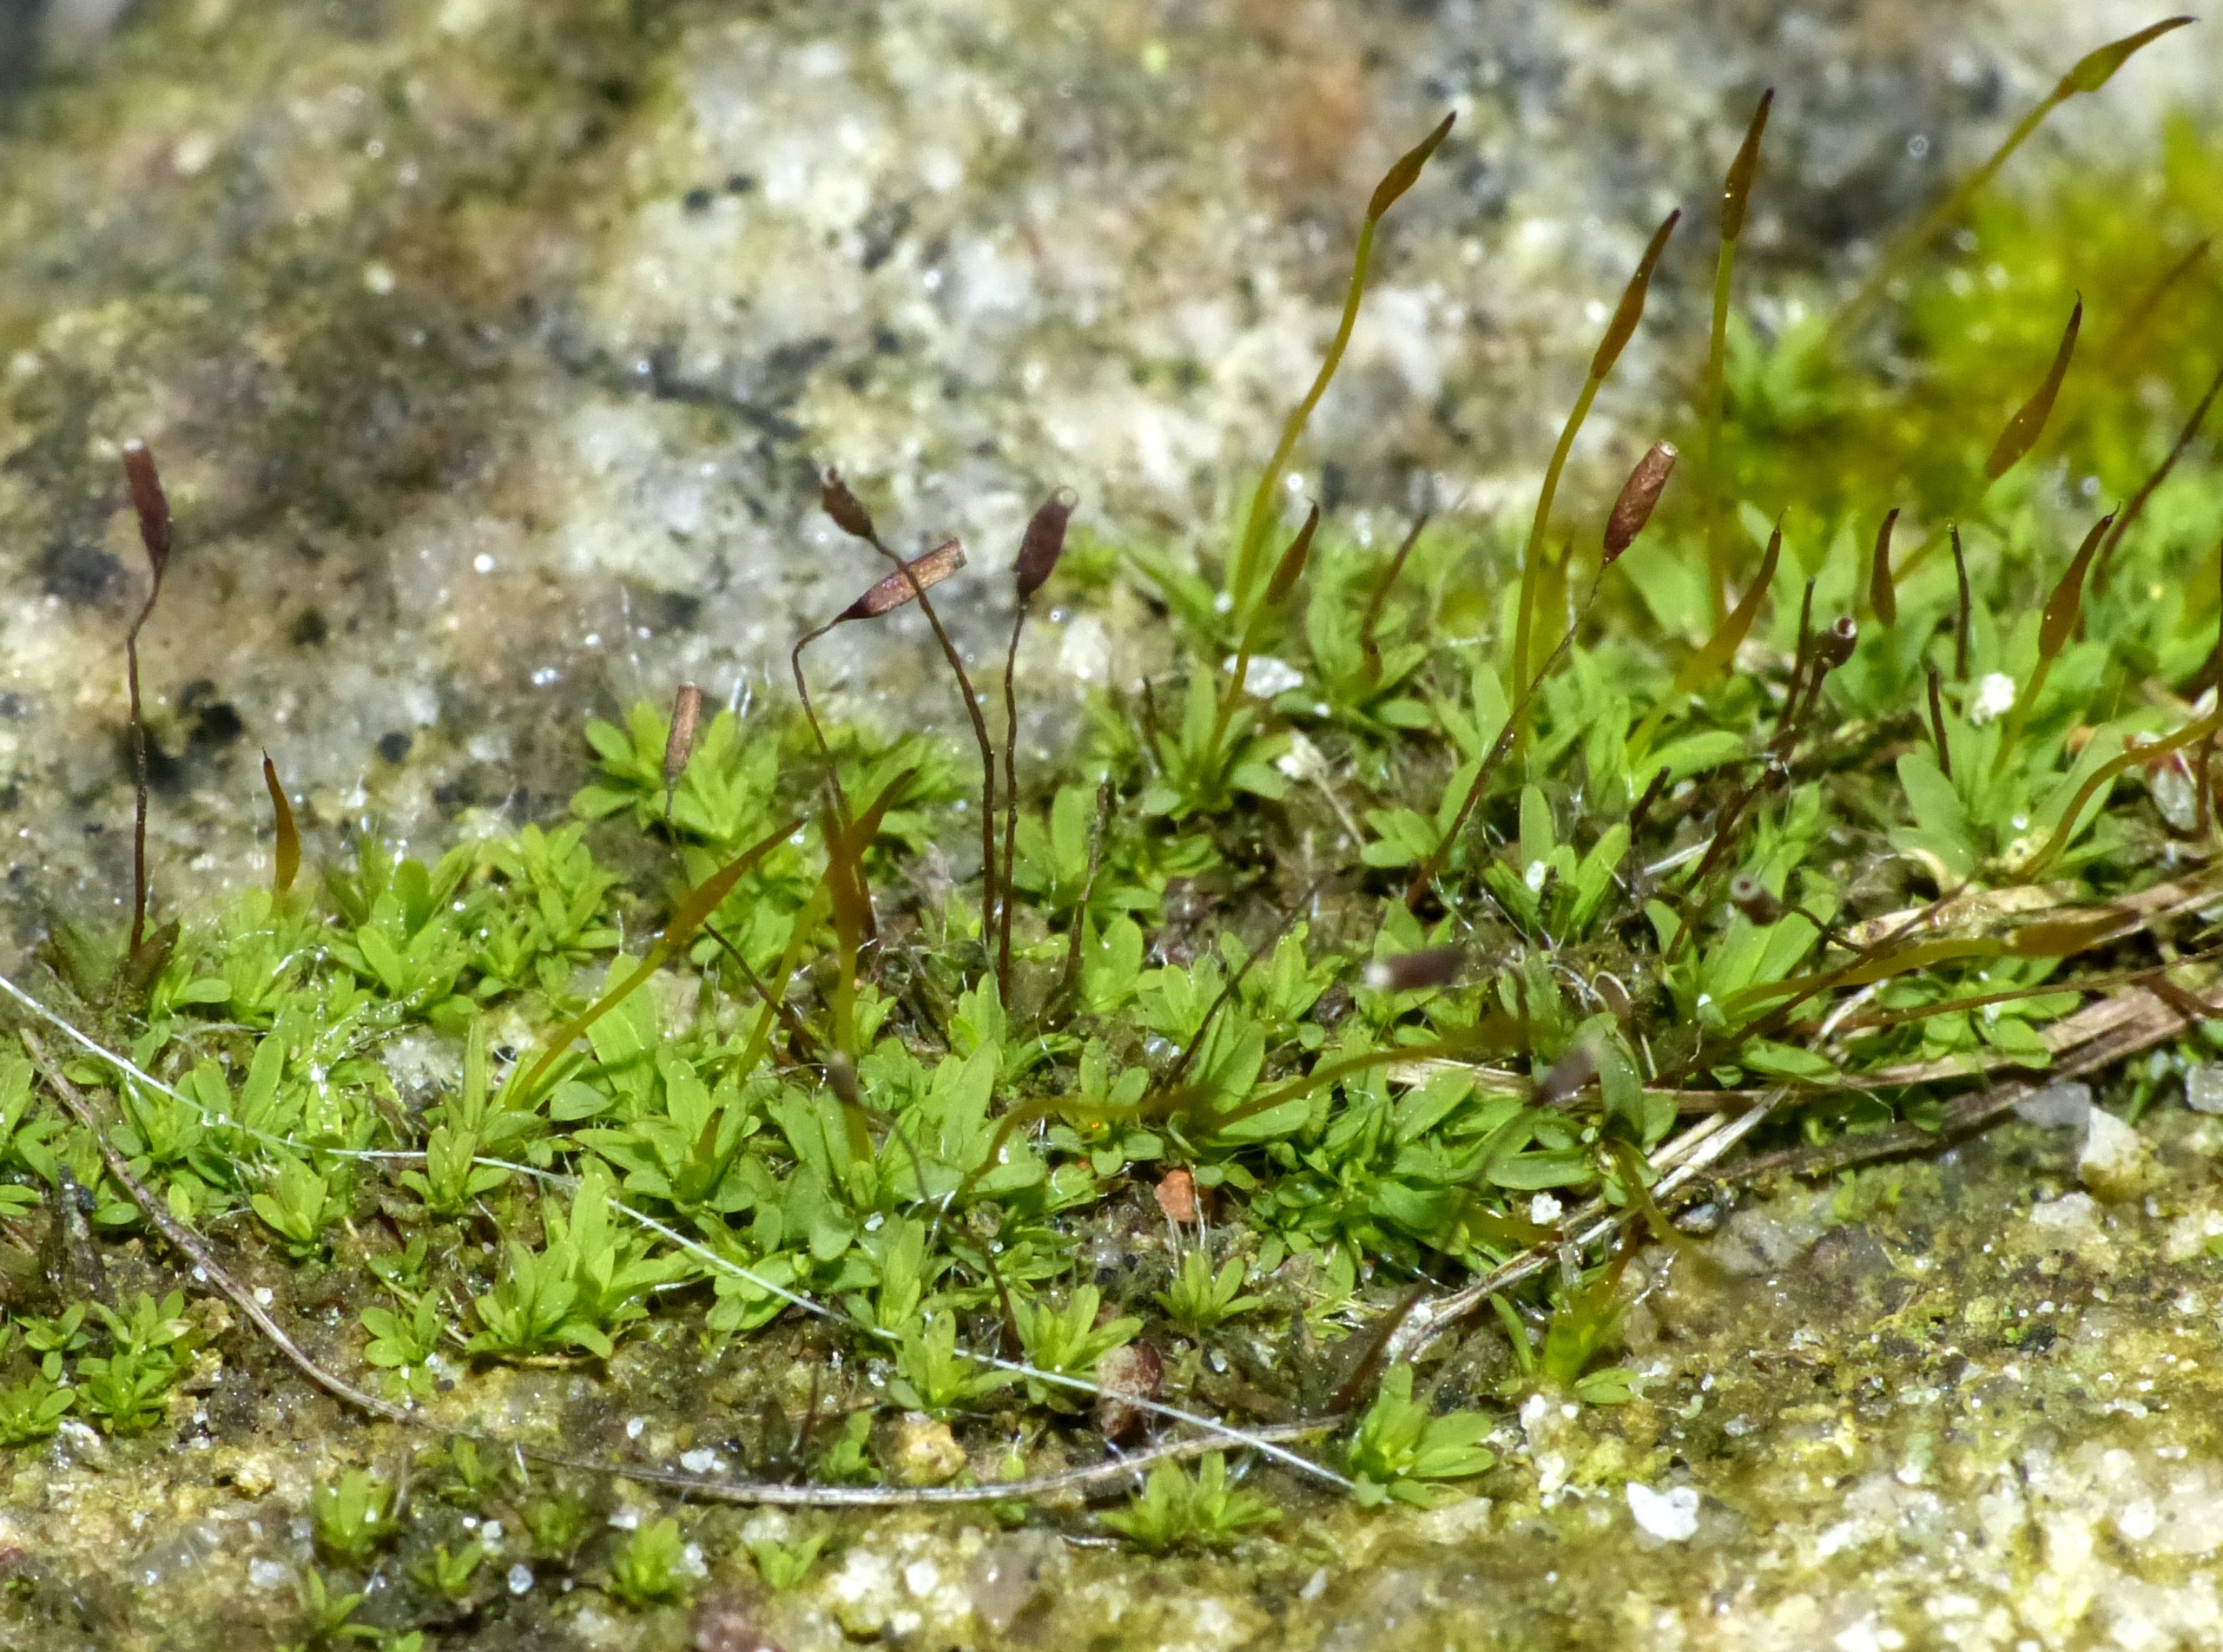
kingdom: Plantae
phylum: Bryophyta
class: Bryopsida
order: Pottiales
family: Pottiaceae
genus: Tortula
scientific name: Tortula muralis
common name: Mur-snotand
